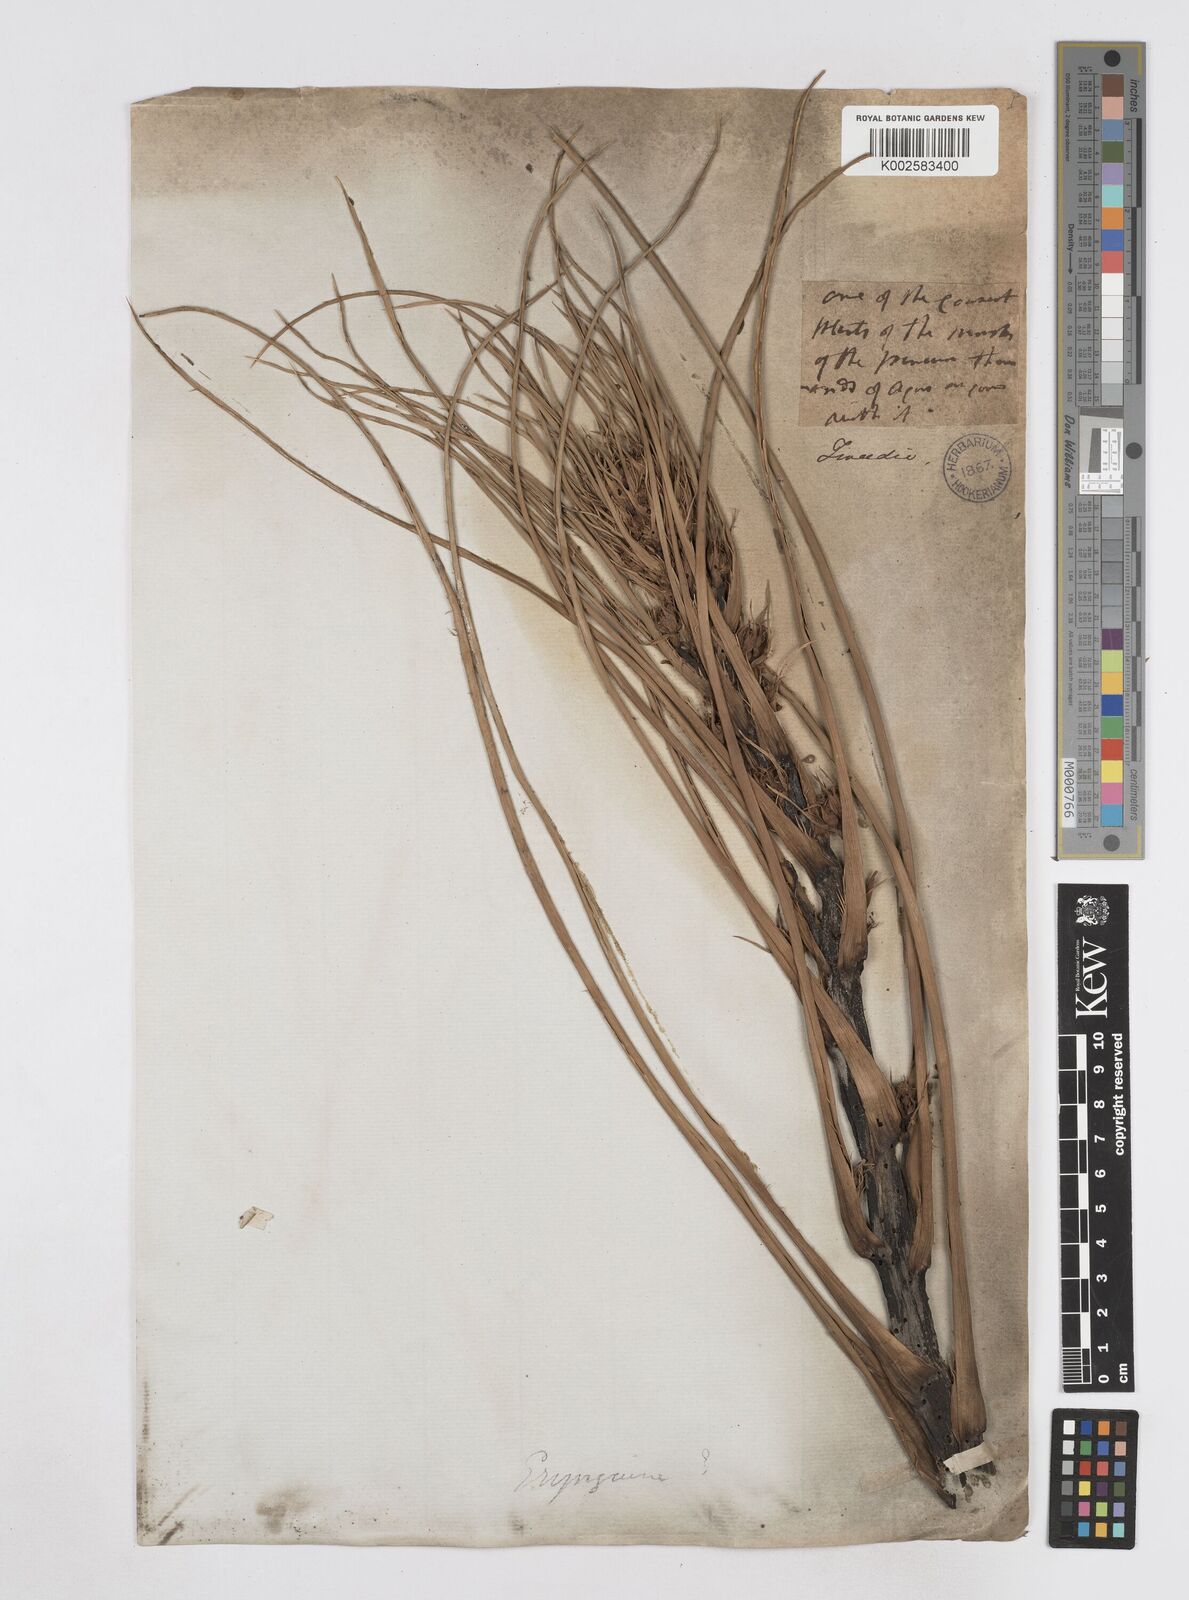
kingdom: Plantae
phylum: Tracheophyta
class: Magnoliopsida
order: Apiales
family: Apiaceae
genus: Eryngium
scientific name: Eryngium pandanifolium
